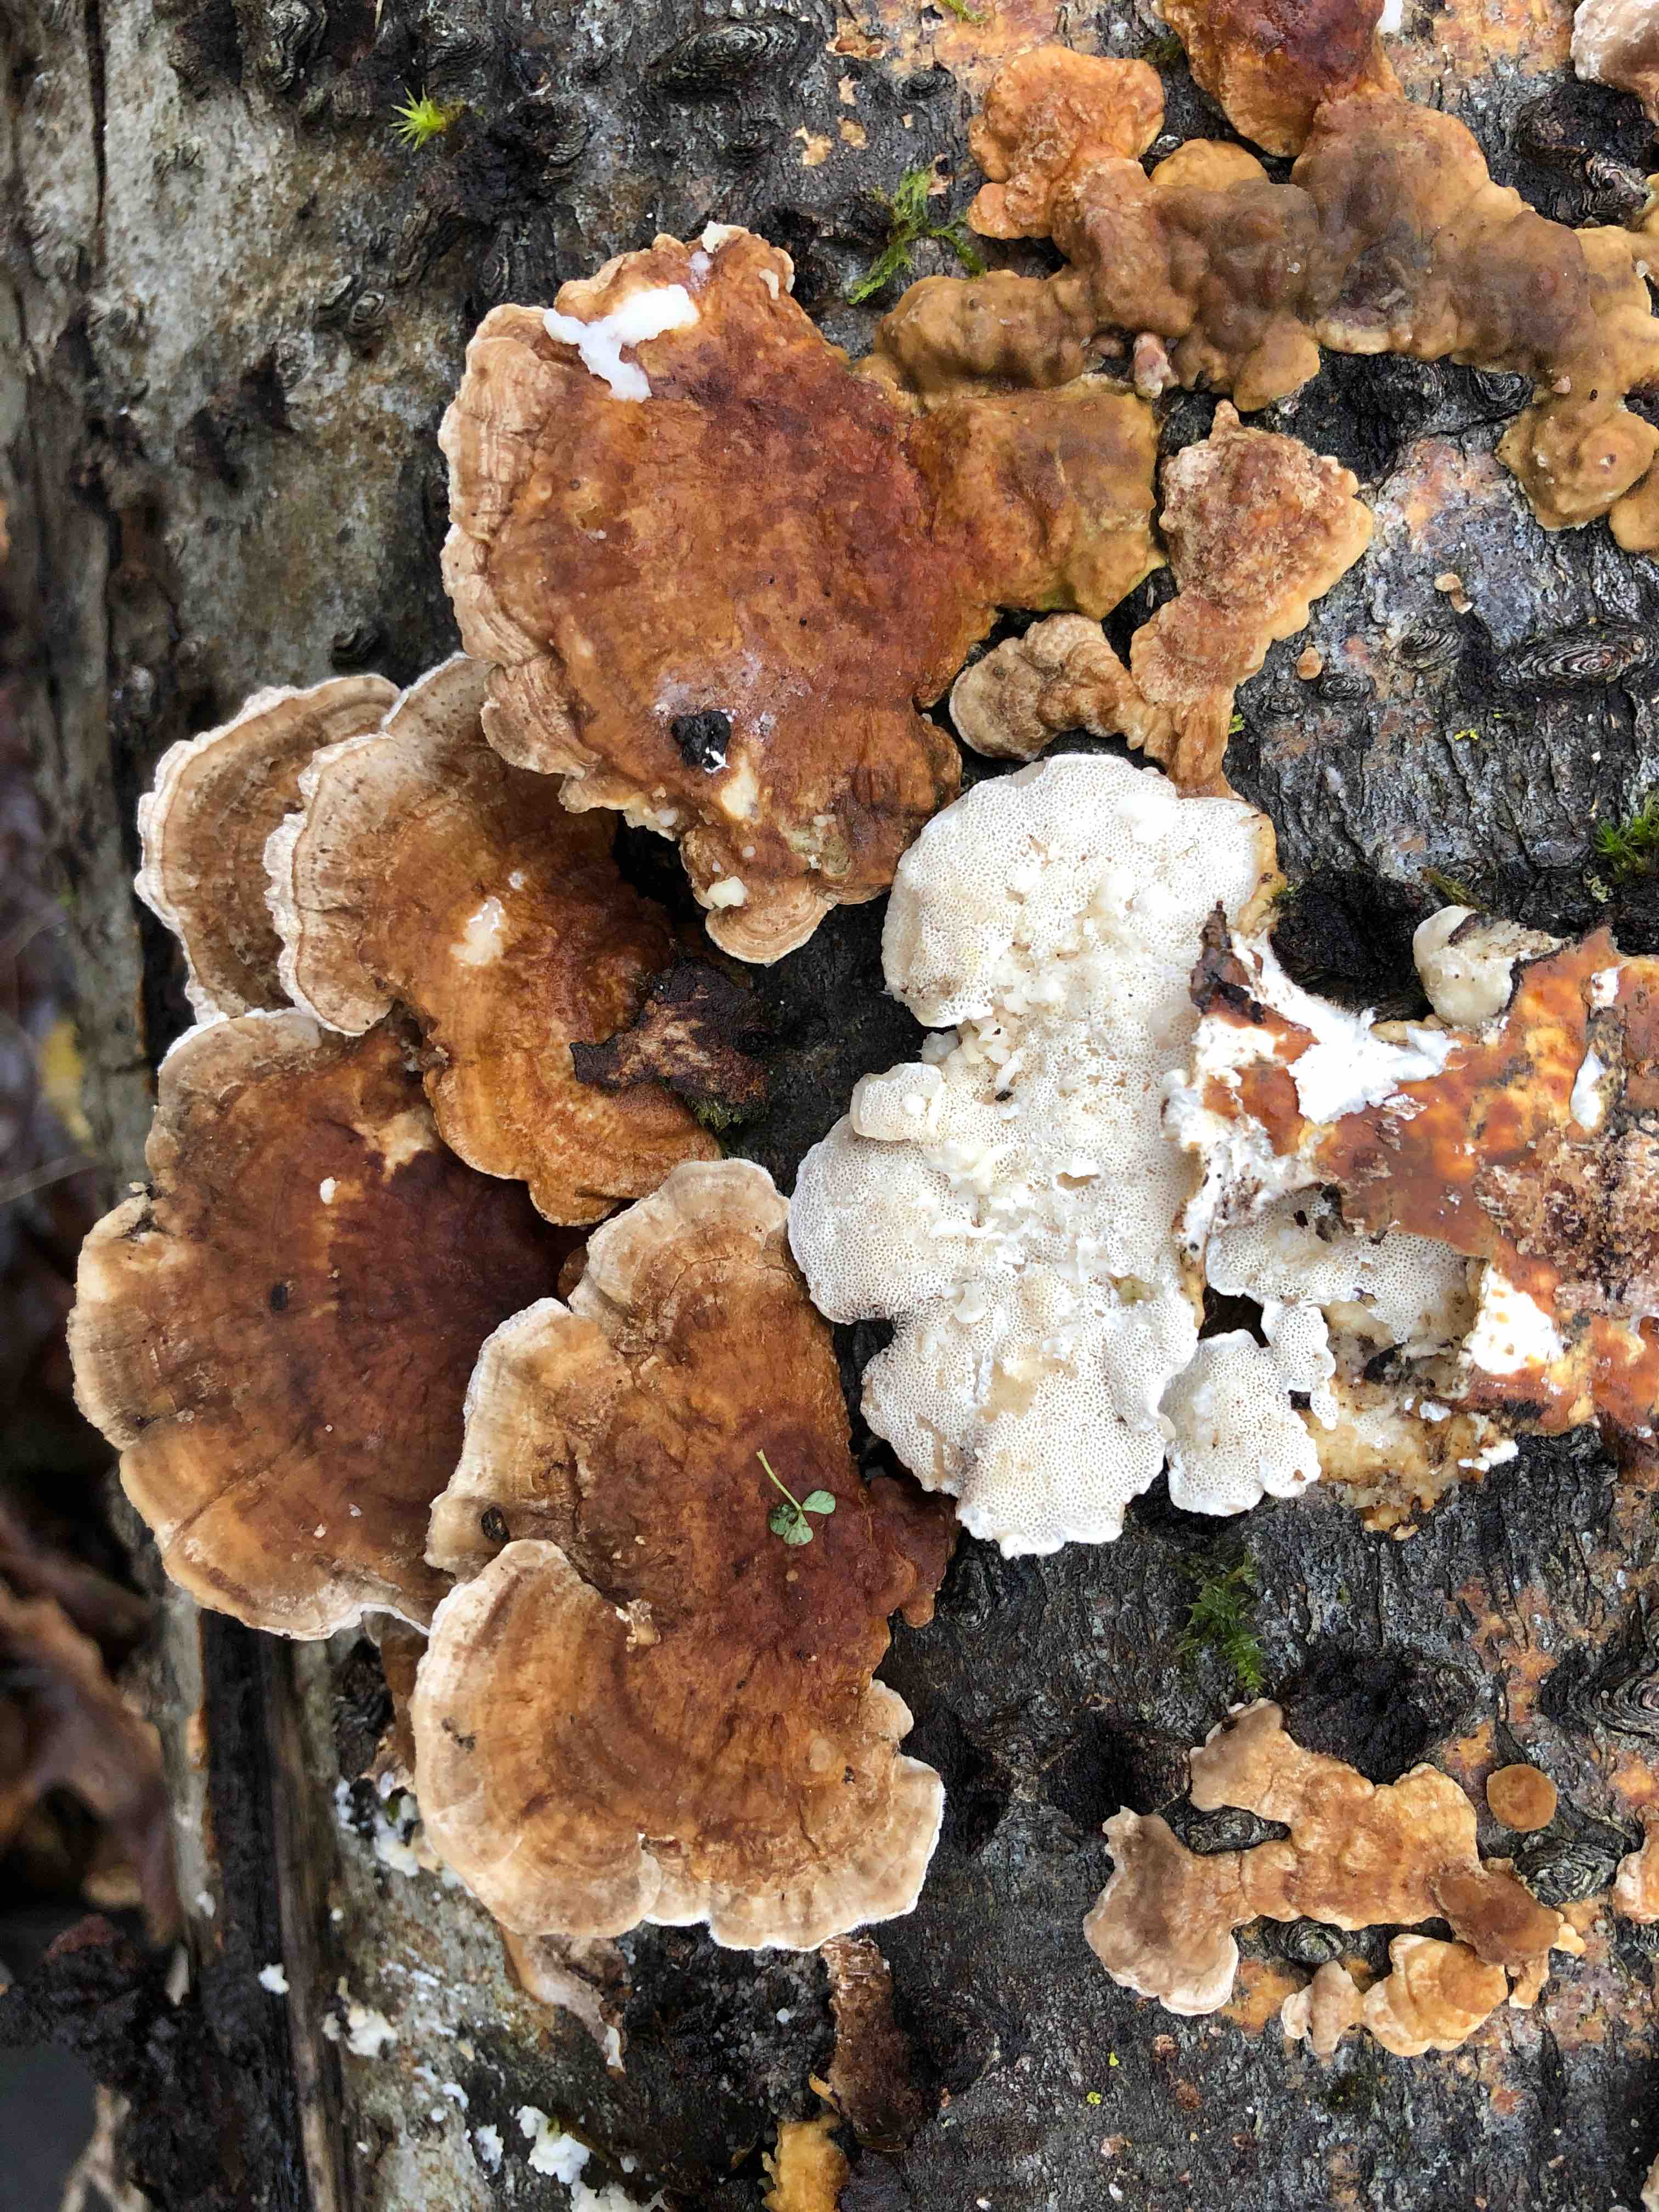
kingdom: Fungi
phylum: Basidiomycota
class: Agaricomycetes
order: Polyporales
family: Polyporaceae
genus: Trametes
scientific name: Trametes ochracea
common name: bæltet læderporesvamp
